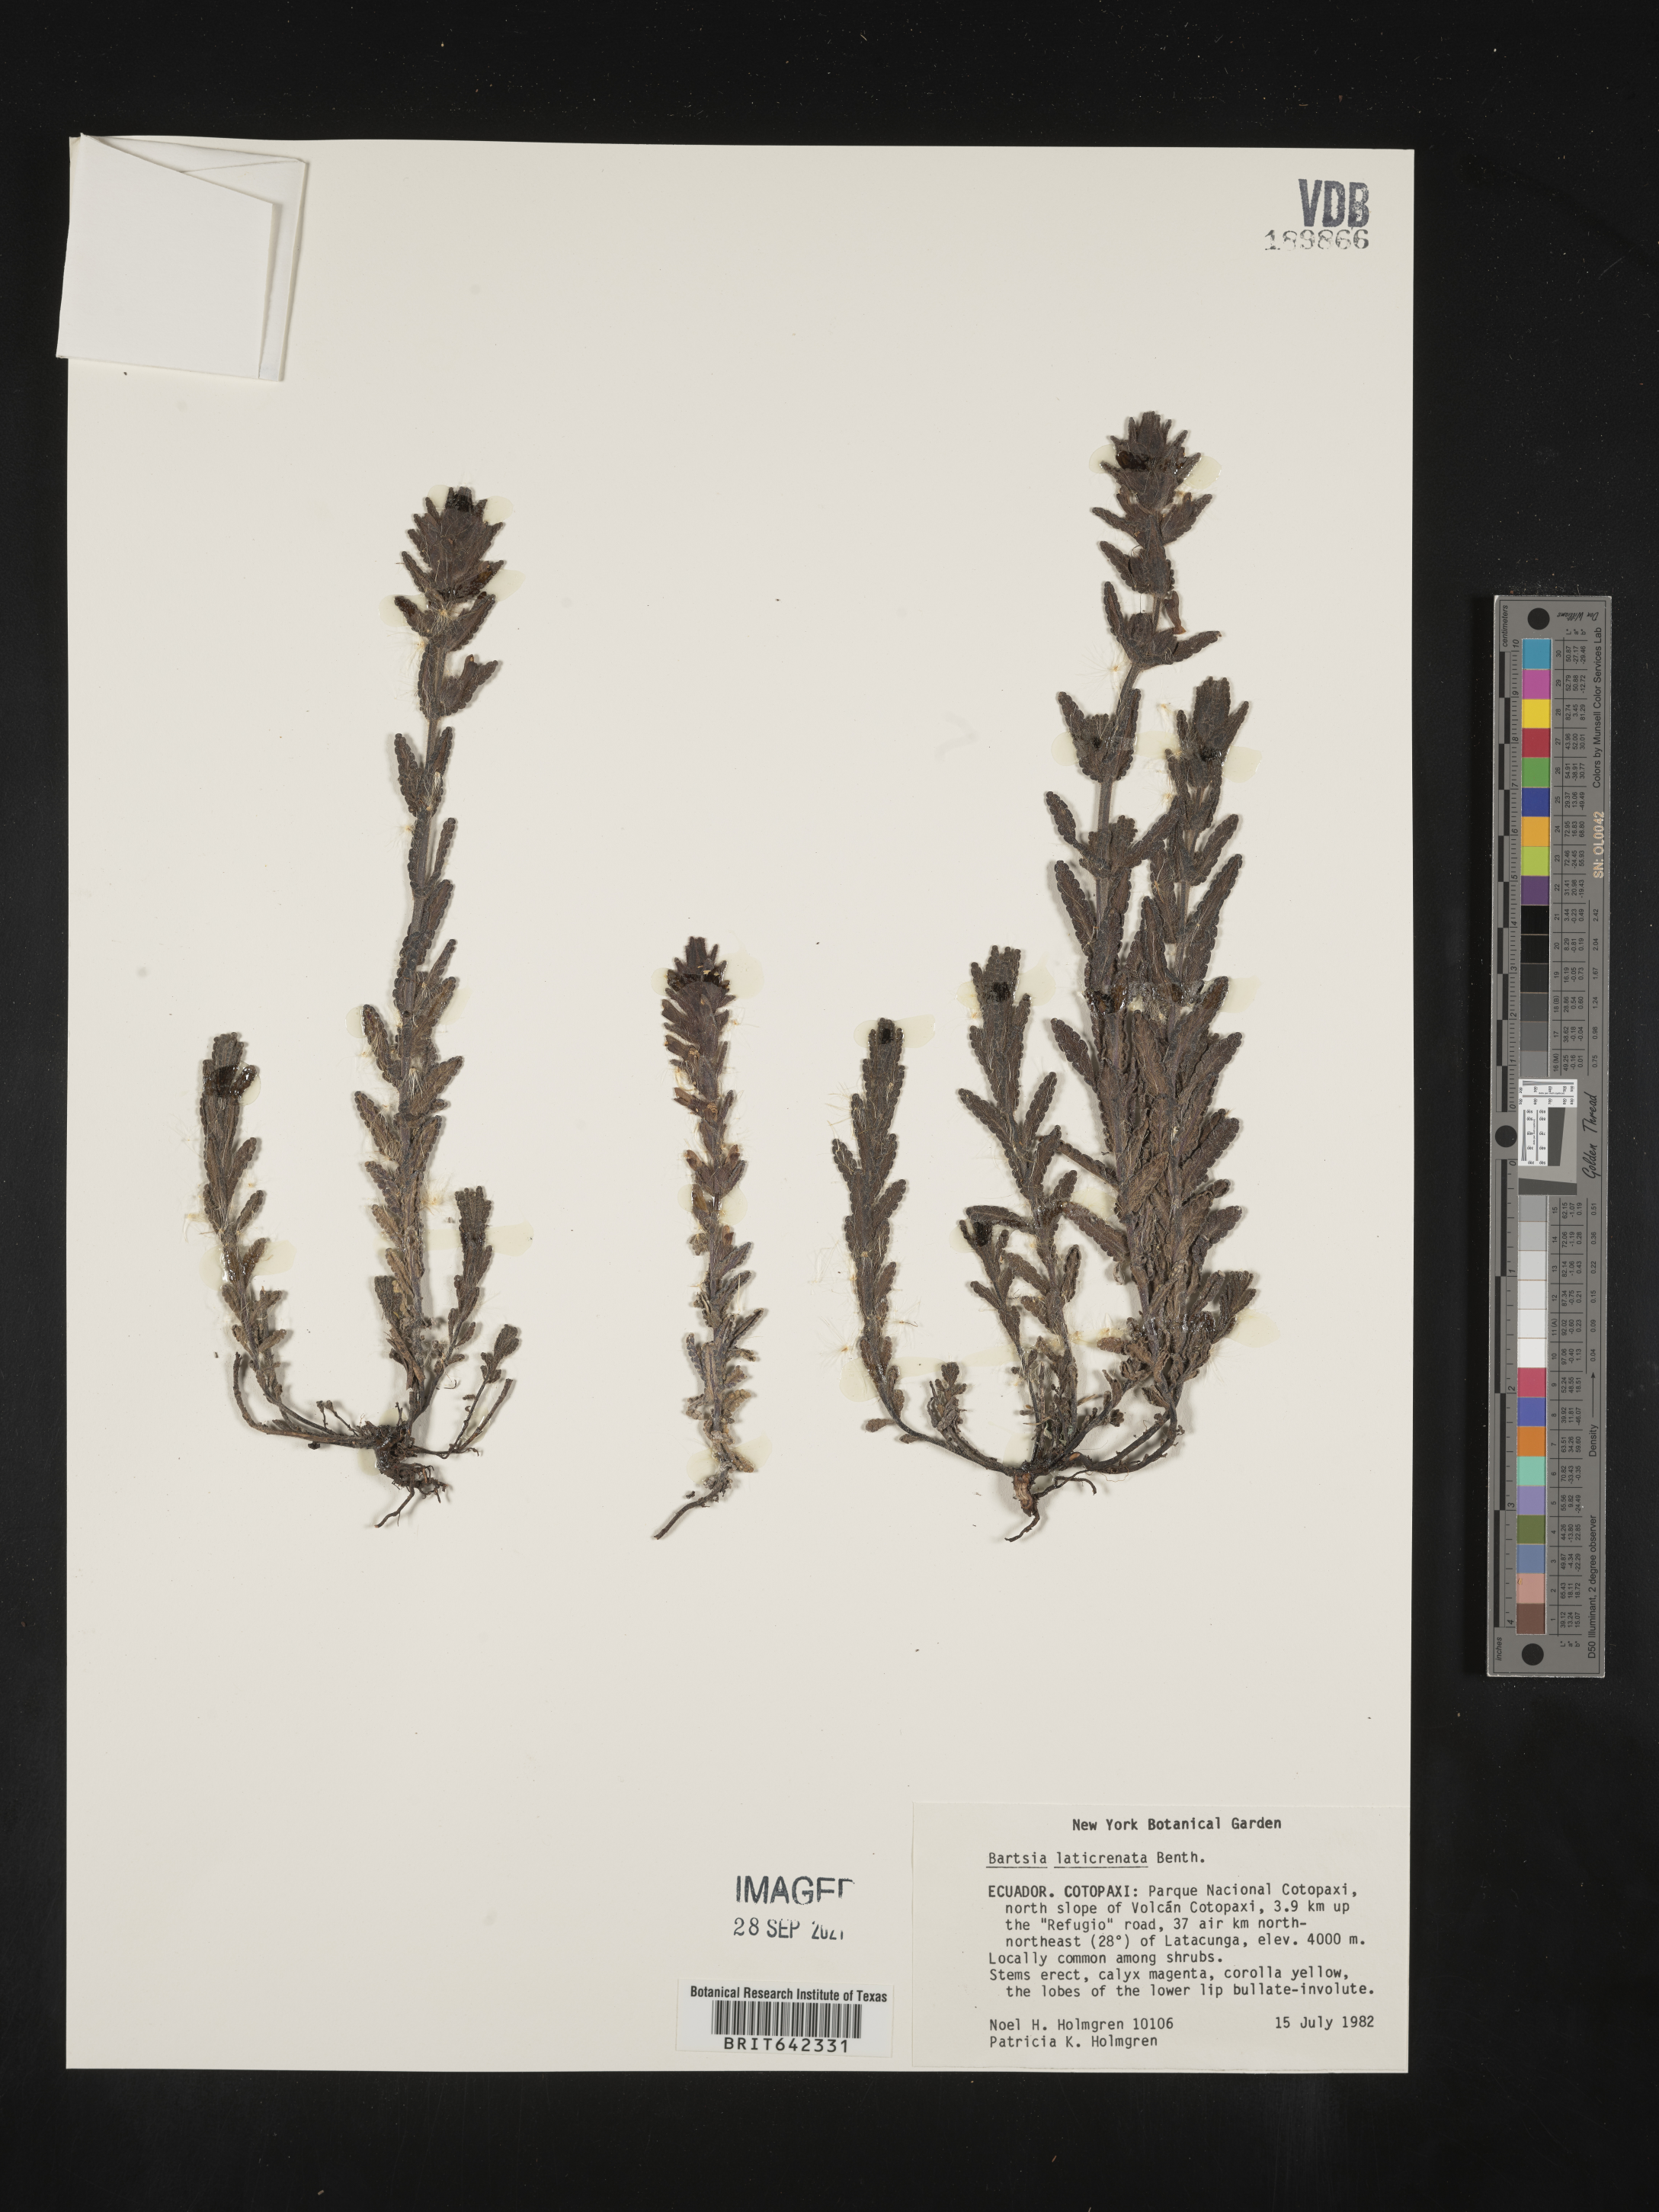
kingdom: Plantae
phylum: Tracheophyta
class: Magnoliopsida
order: Lamiales
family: Orobanchaceae
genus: Bartsia
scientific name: Bartsia
